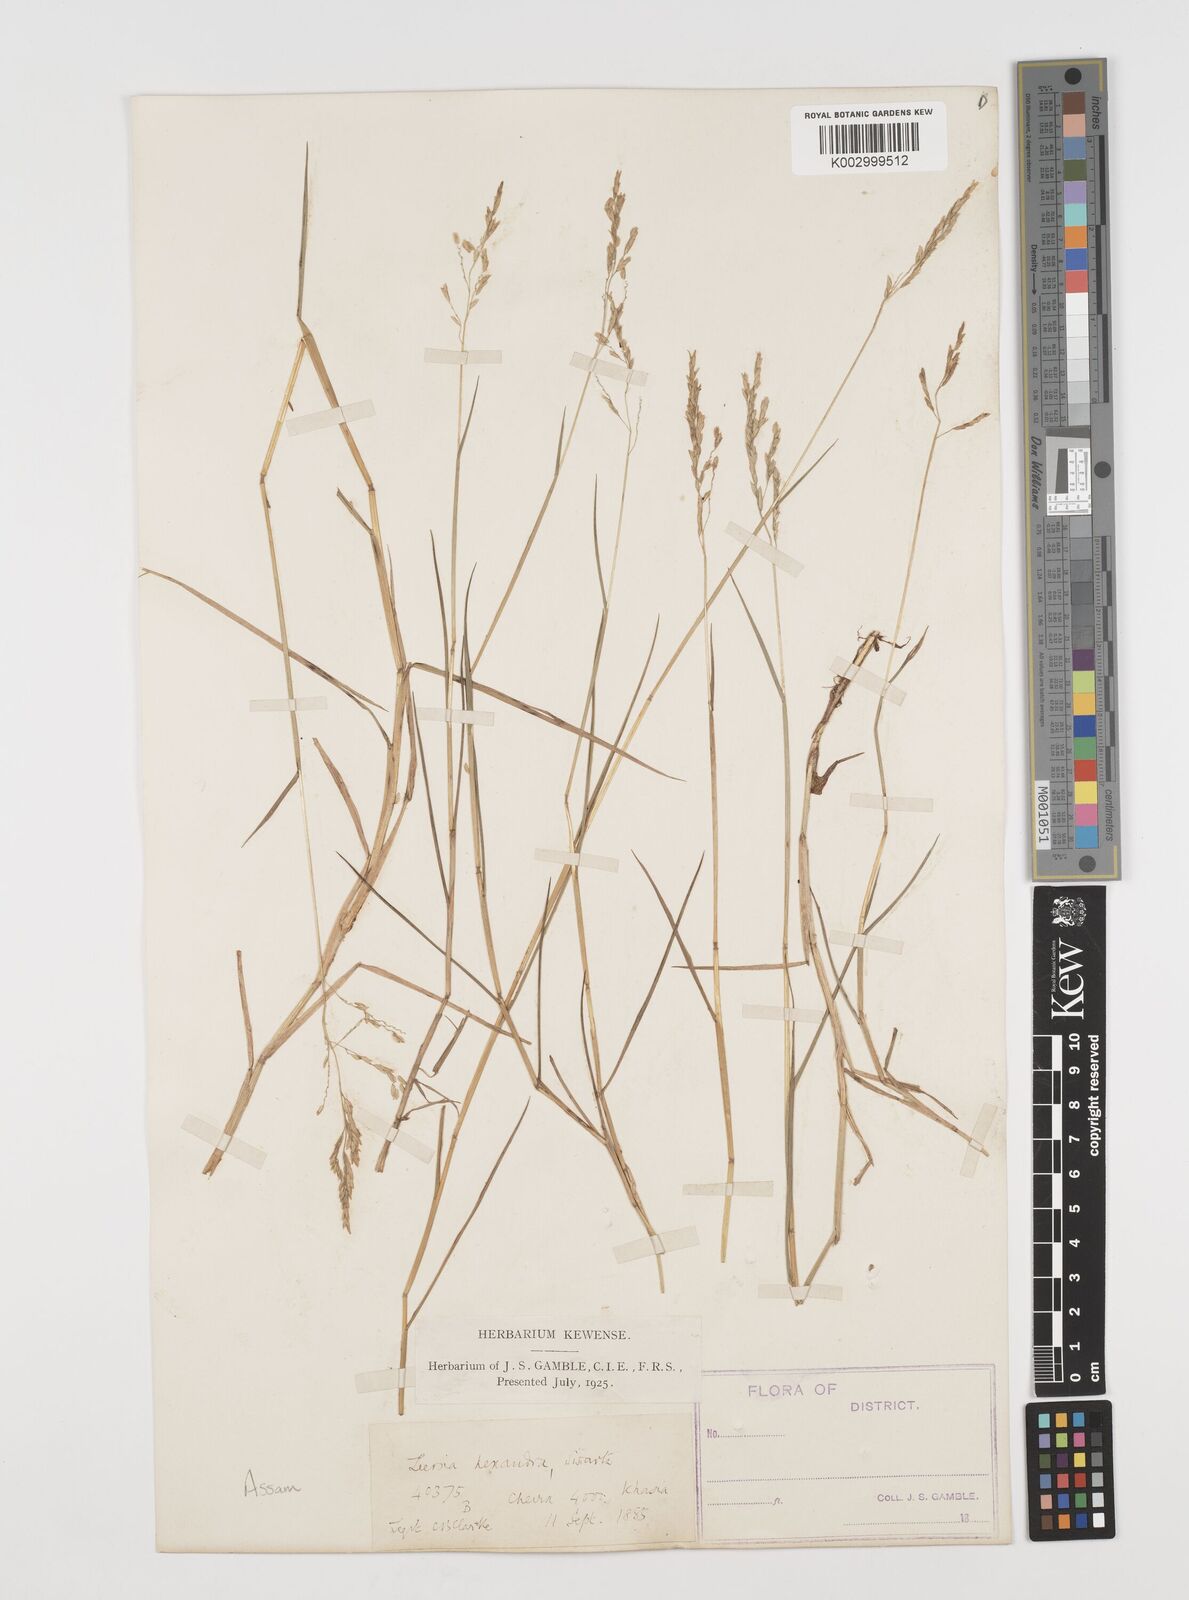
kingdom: Plantae
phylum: Tracheophyta
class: Liliopsida
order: Poales
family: Poaceae
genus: Leersia
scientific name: Leersia hexandra
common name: Southern cut grass
